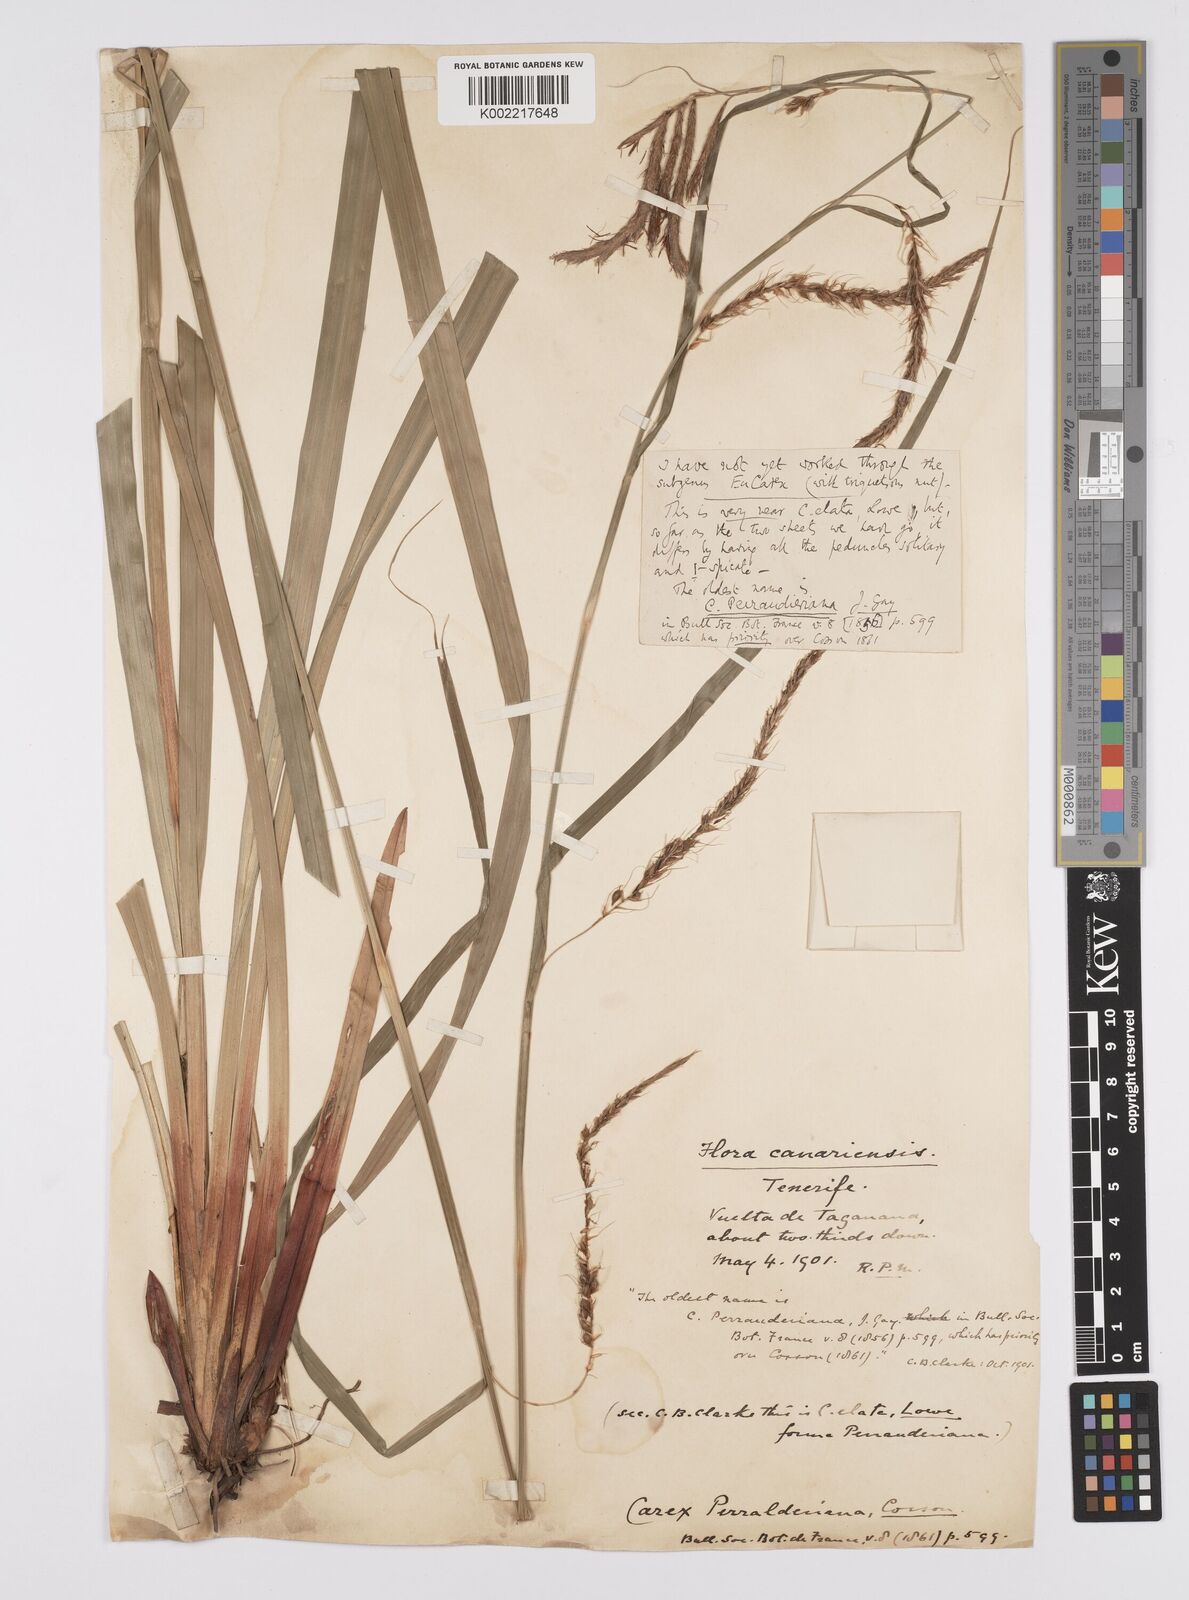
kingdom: Plantae
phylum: Tracheophyta
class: Liliopsida
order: Poales
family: Cyperaceae
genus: Carex
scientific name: Carex perraudieriana
